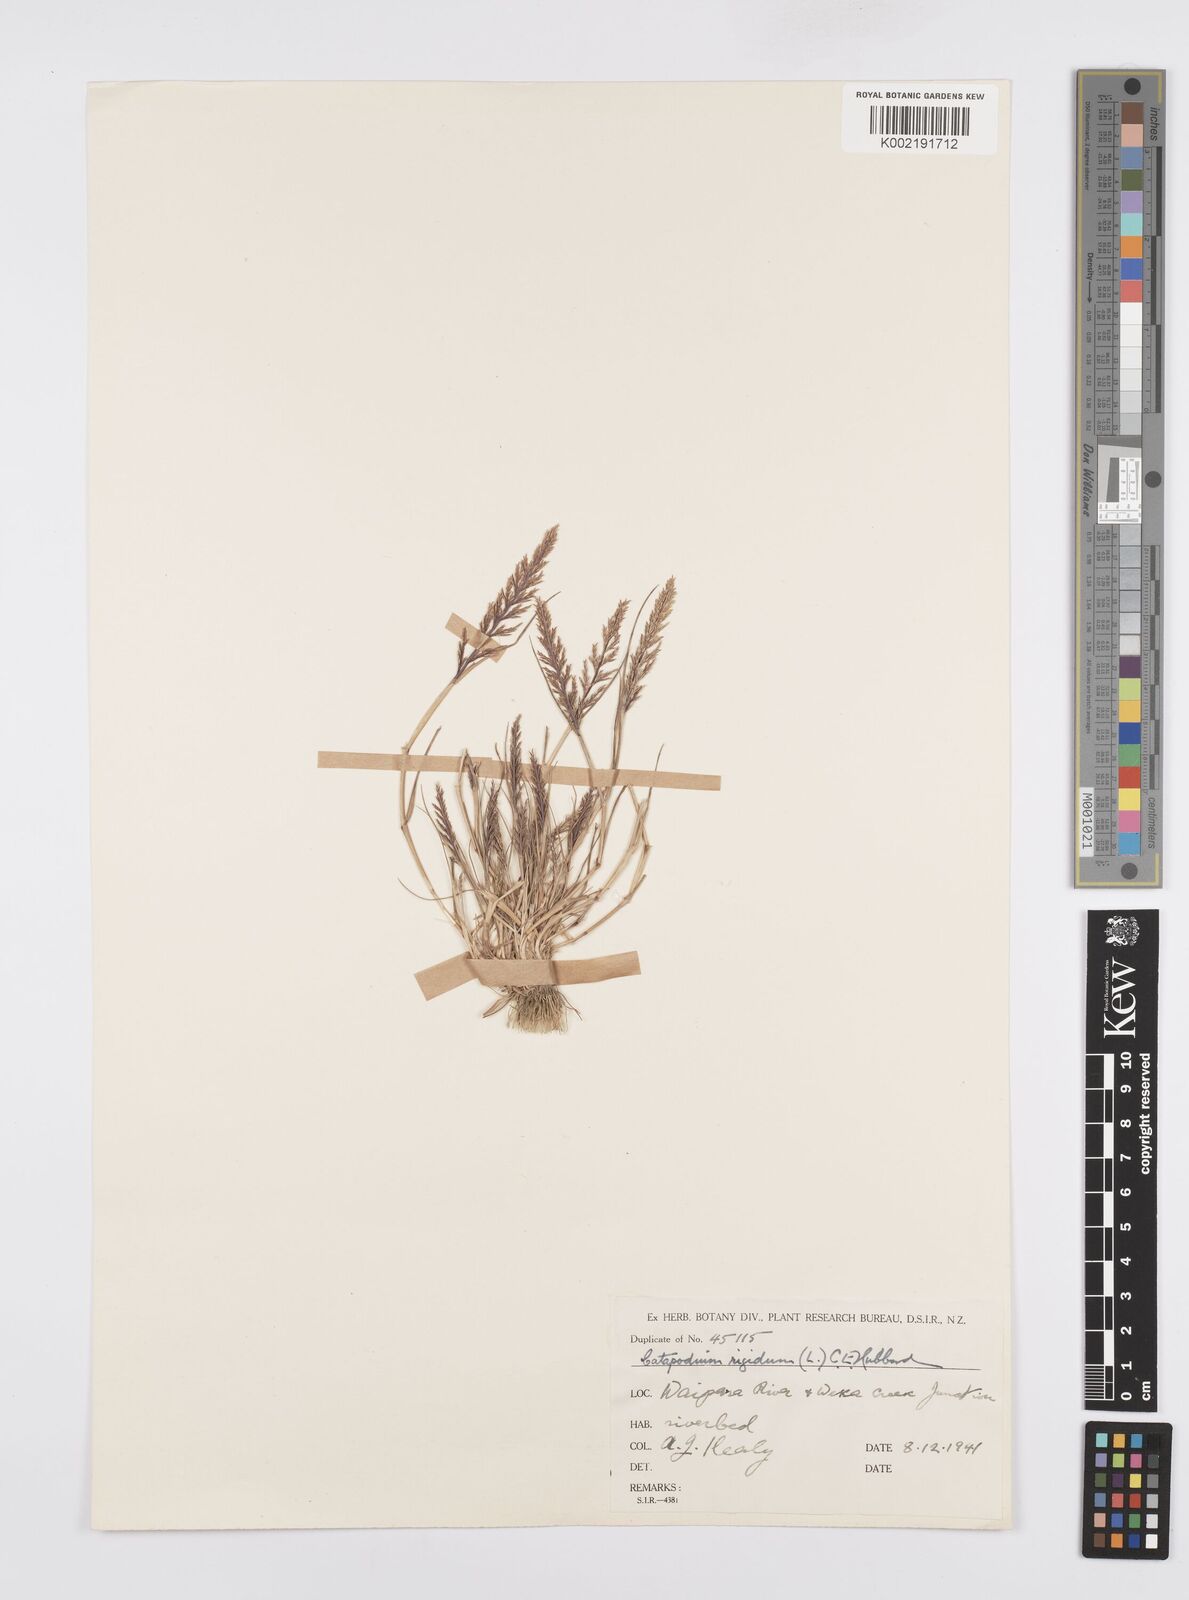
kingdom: Plantae
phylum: Tracheophyta
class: Liliopsida
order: Poales
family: Poaceae
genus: Catapodium
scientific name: Catapodium rigidum
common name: Fern-grass
